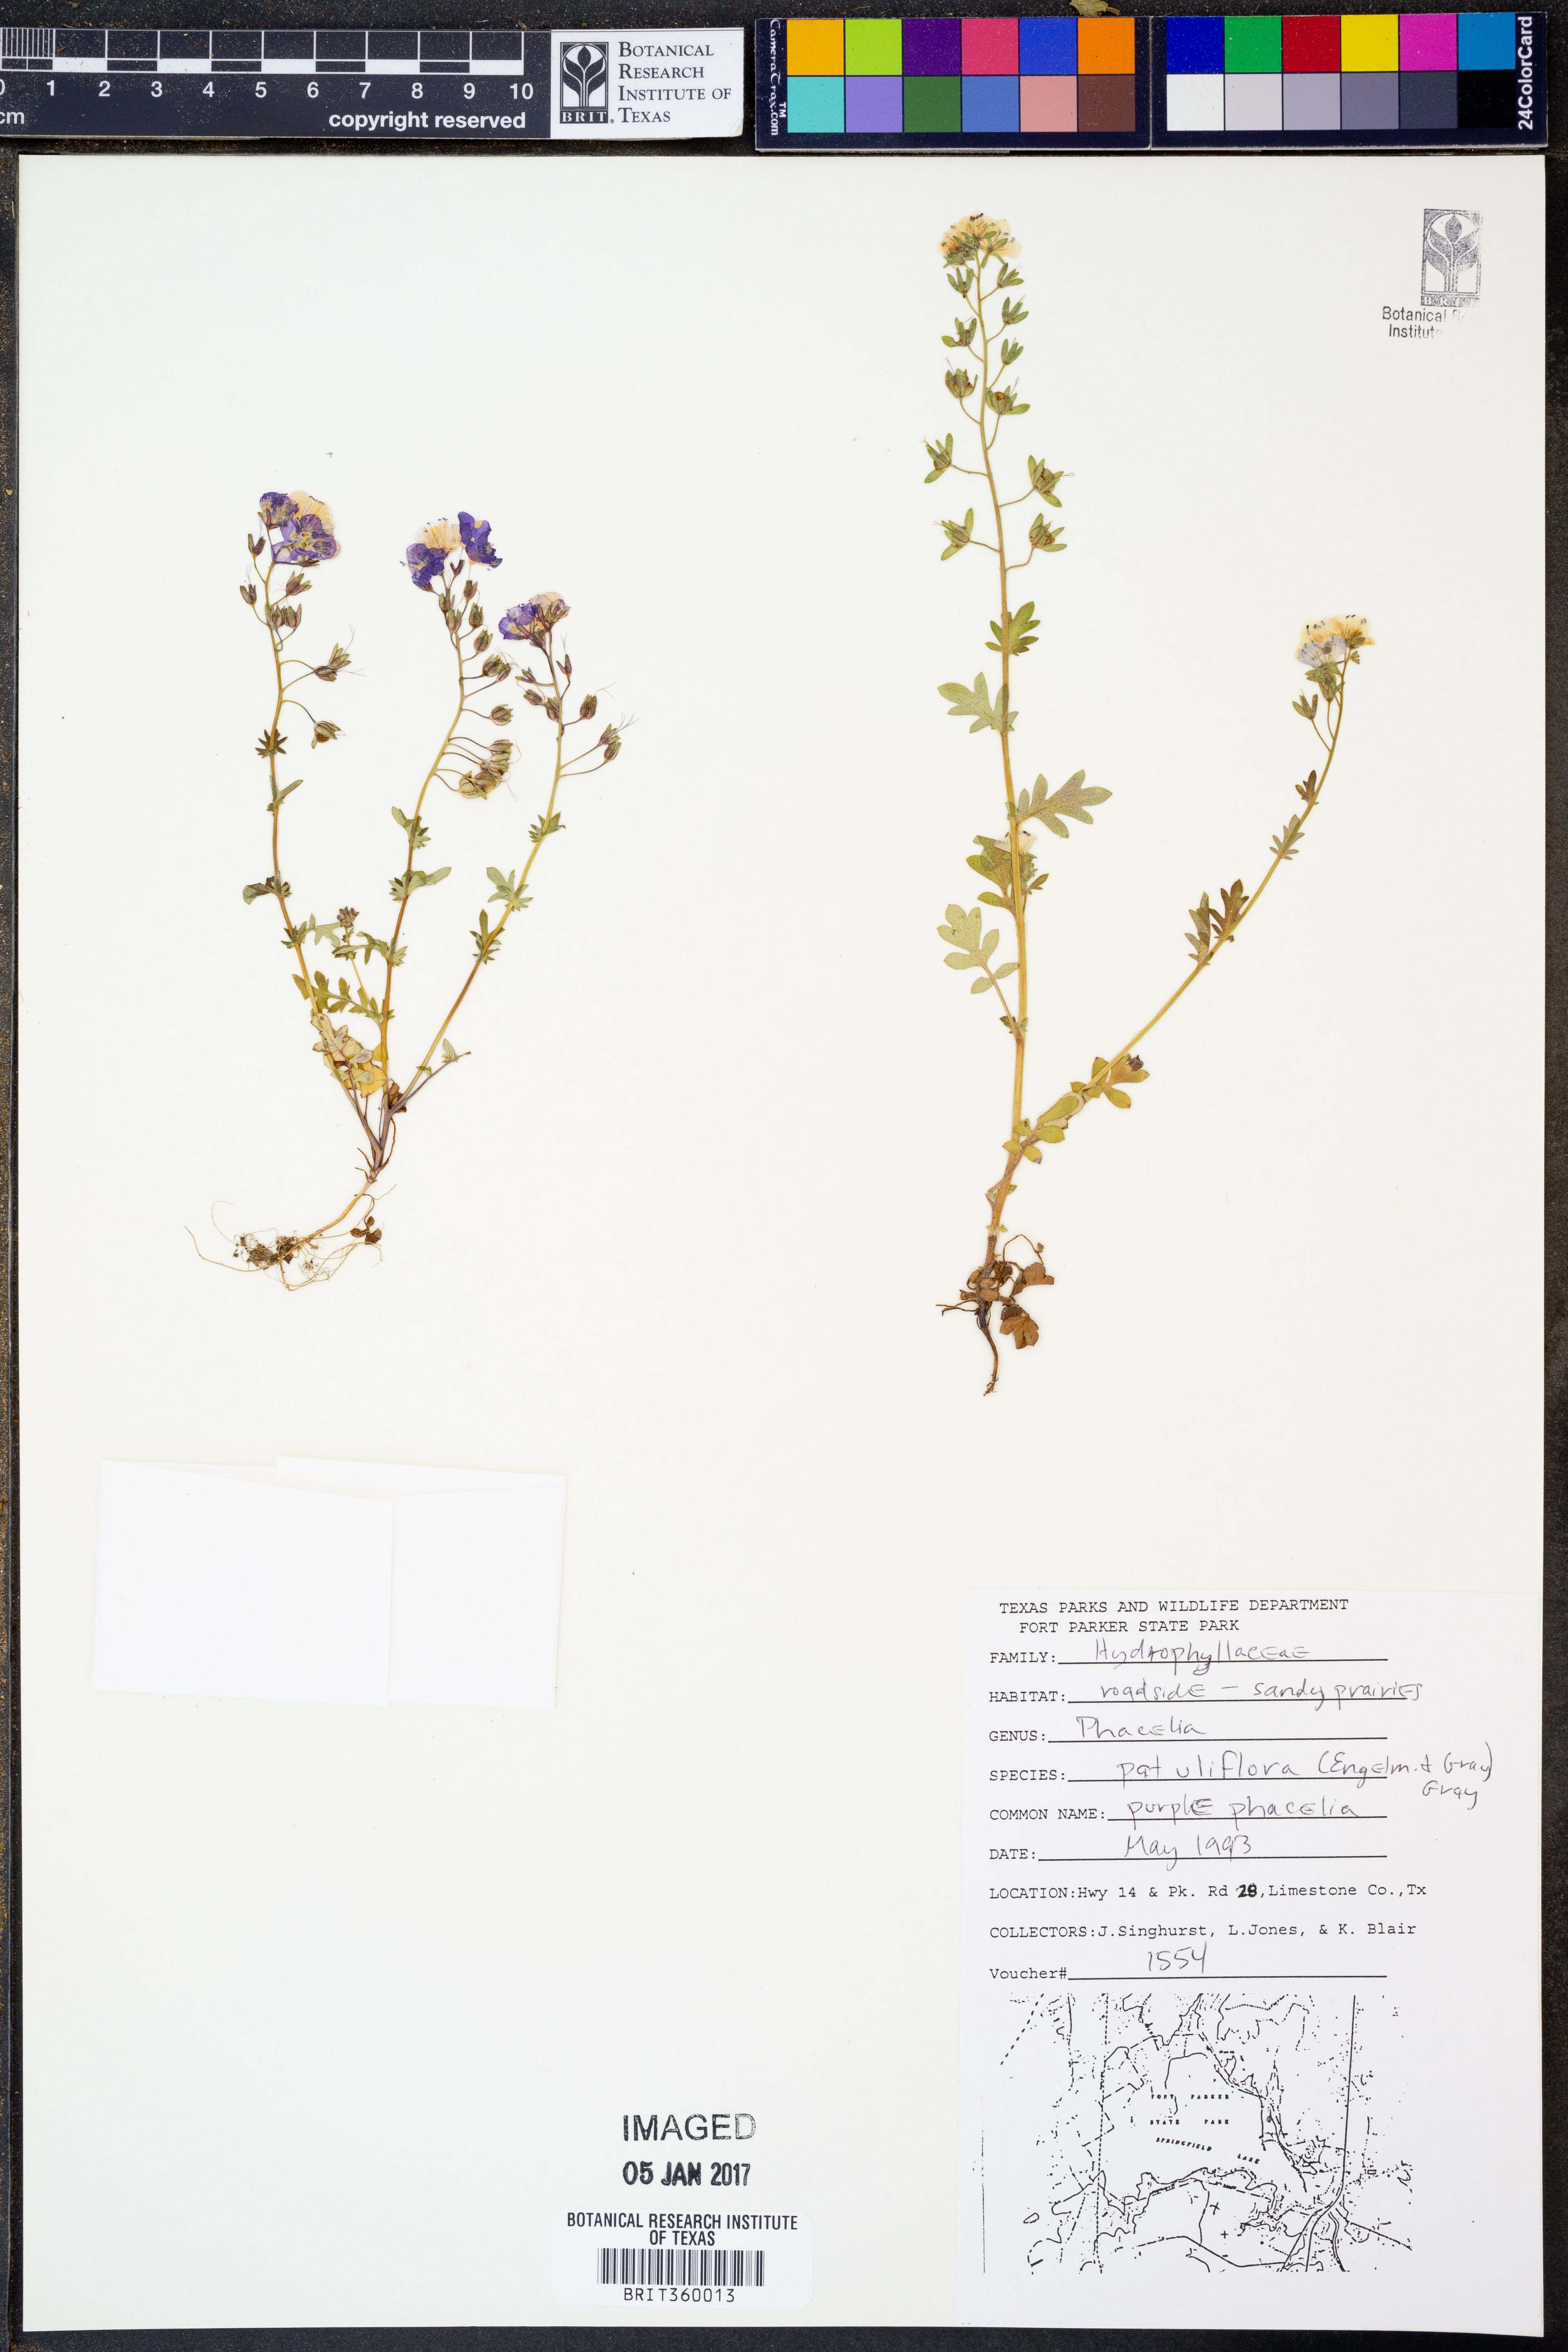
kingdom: Plantae
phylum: Tracheophyta
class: Magnoliopsida
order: Boraginales
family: Hydrophyllaceae
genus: Phacelia
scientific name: Phacelia patuliflora
